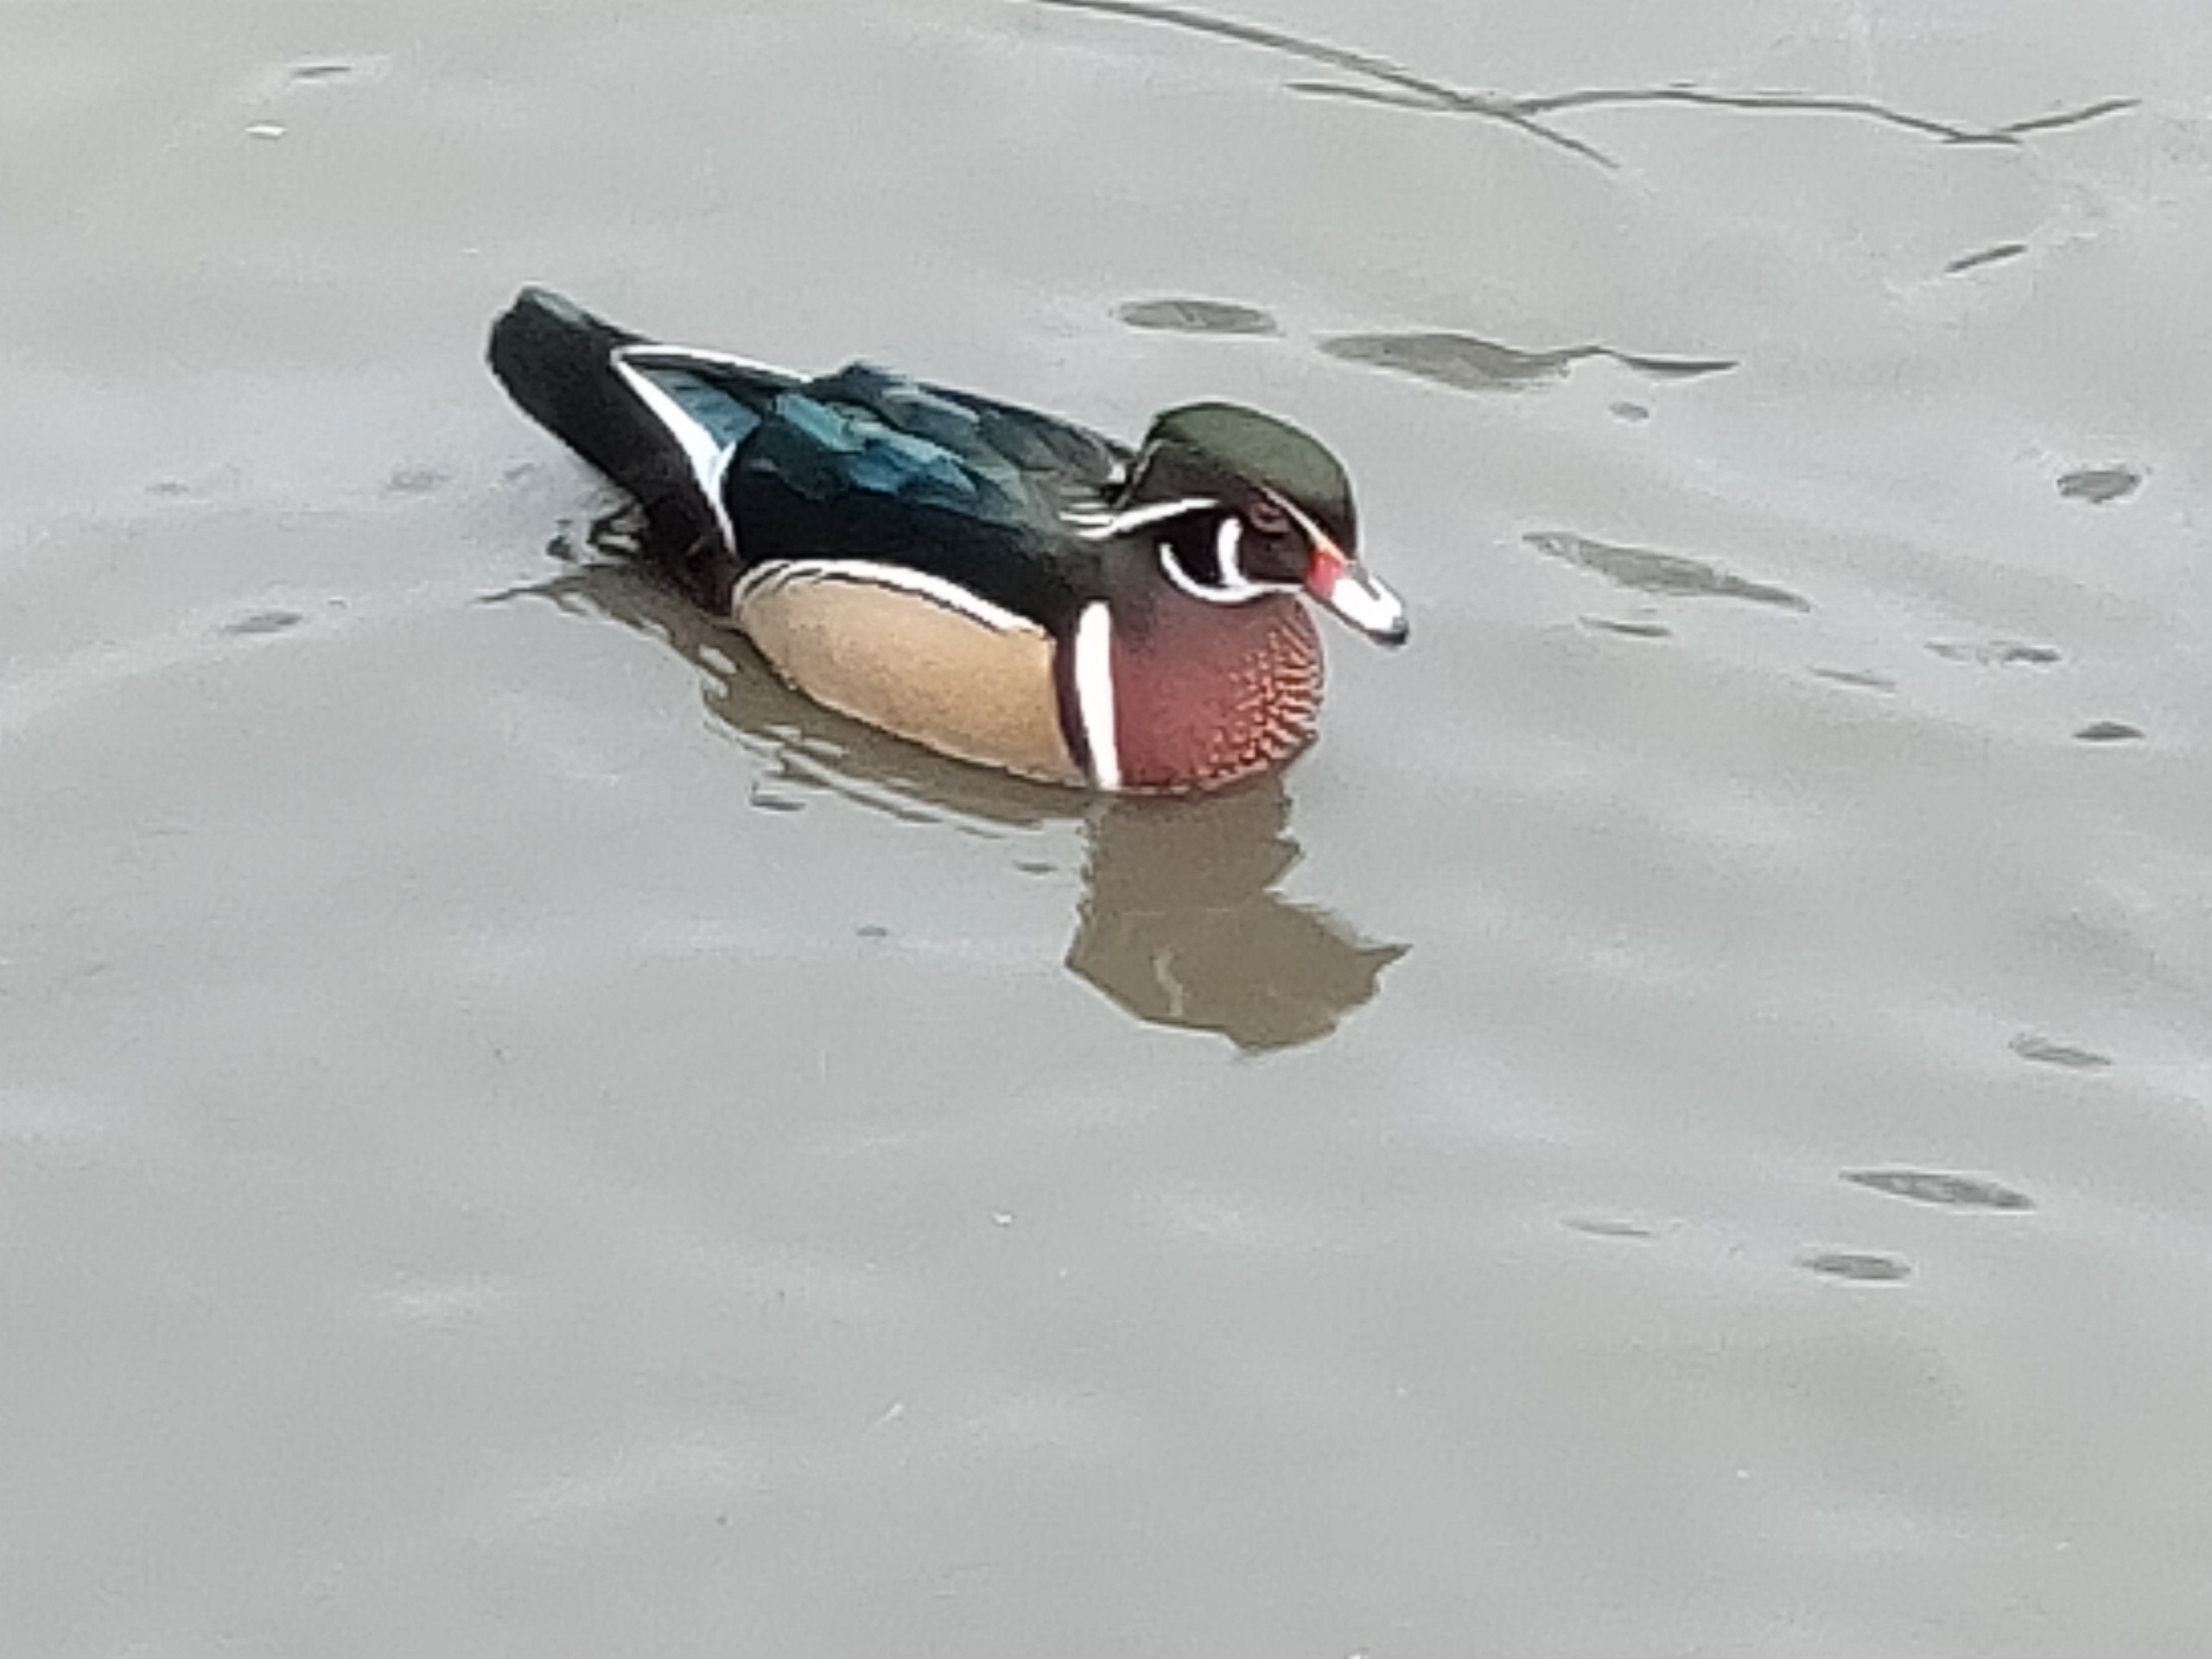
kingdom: Animalia
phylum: Chordata
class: Aves
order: Anseriformes
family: Anatidae
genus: Aix
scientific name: Aix sponsa
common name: Brudeand
